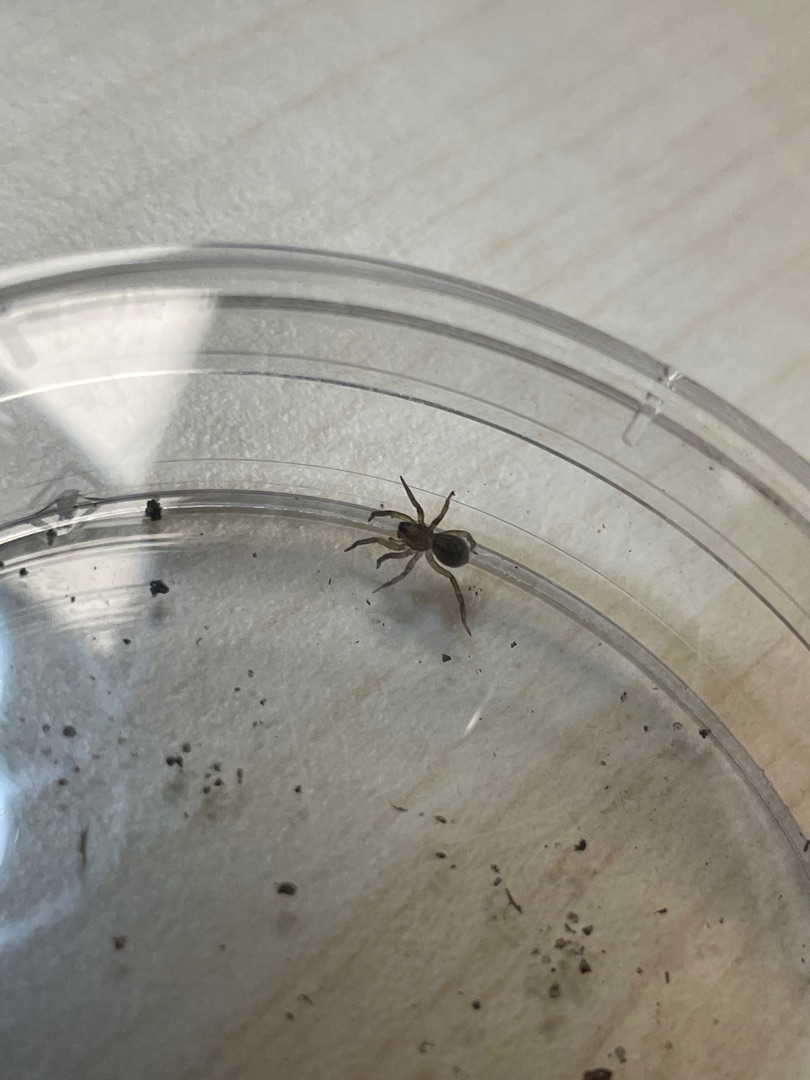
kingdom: Animalia
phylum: Arthropoda
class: Arachnida
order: Araneae
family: Lycosidae
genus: Trochosa
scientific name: Trochosa
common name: Bjørneedderkopslægten
